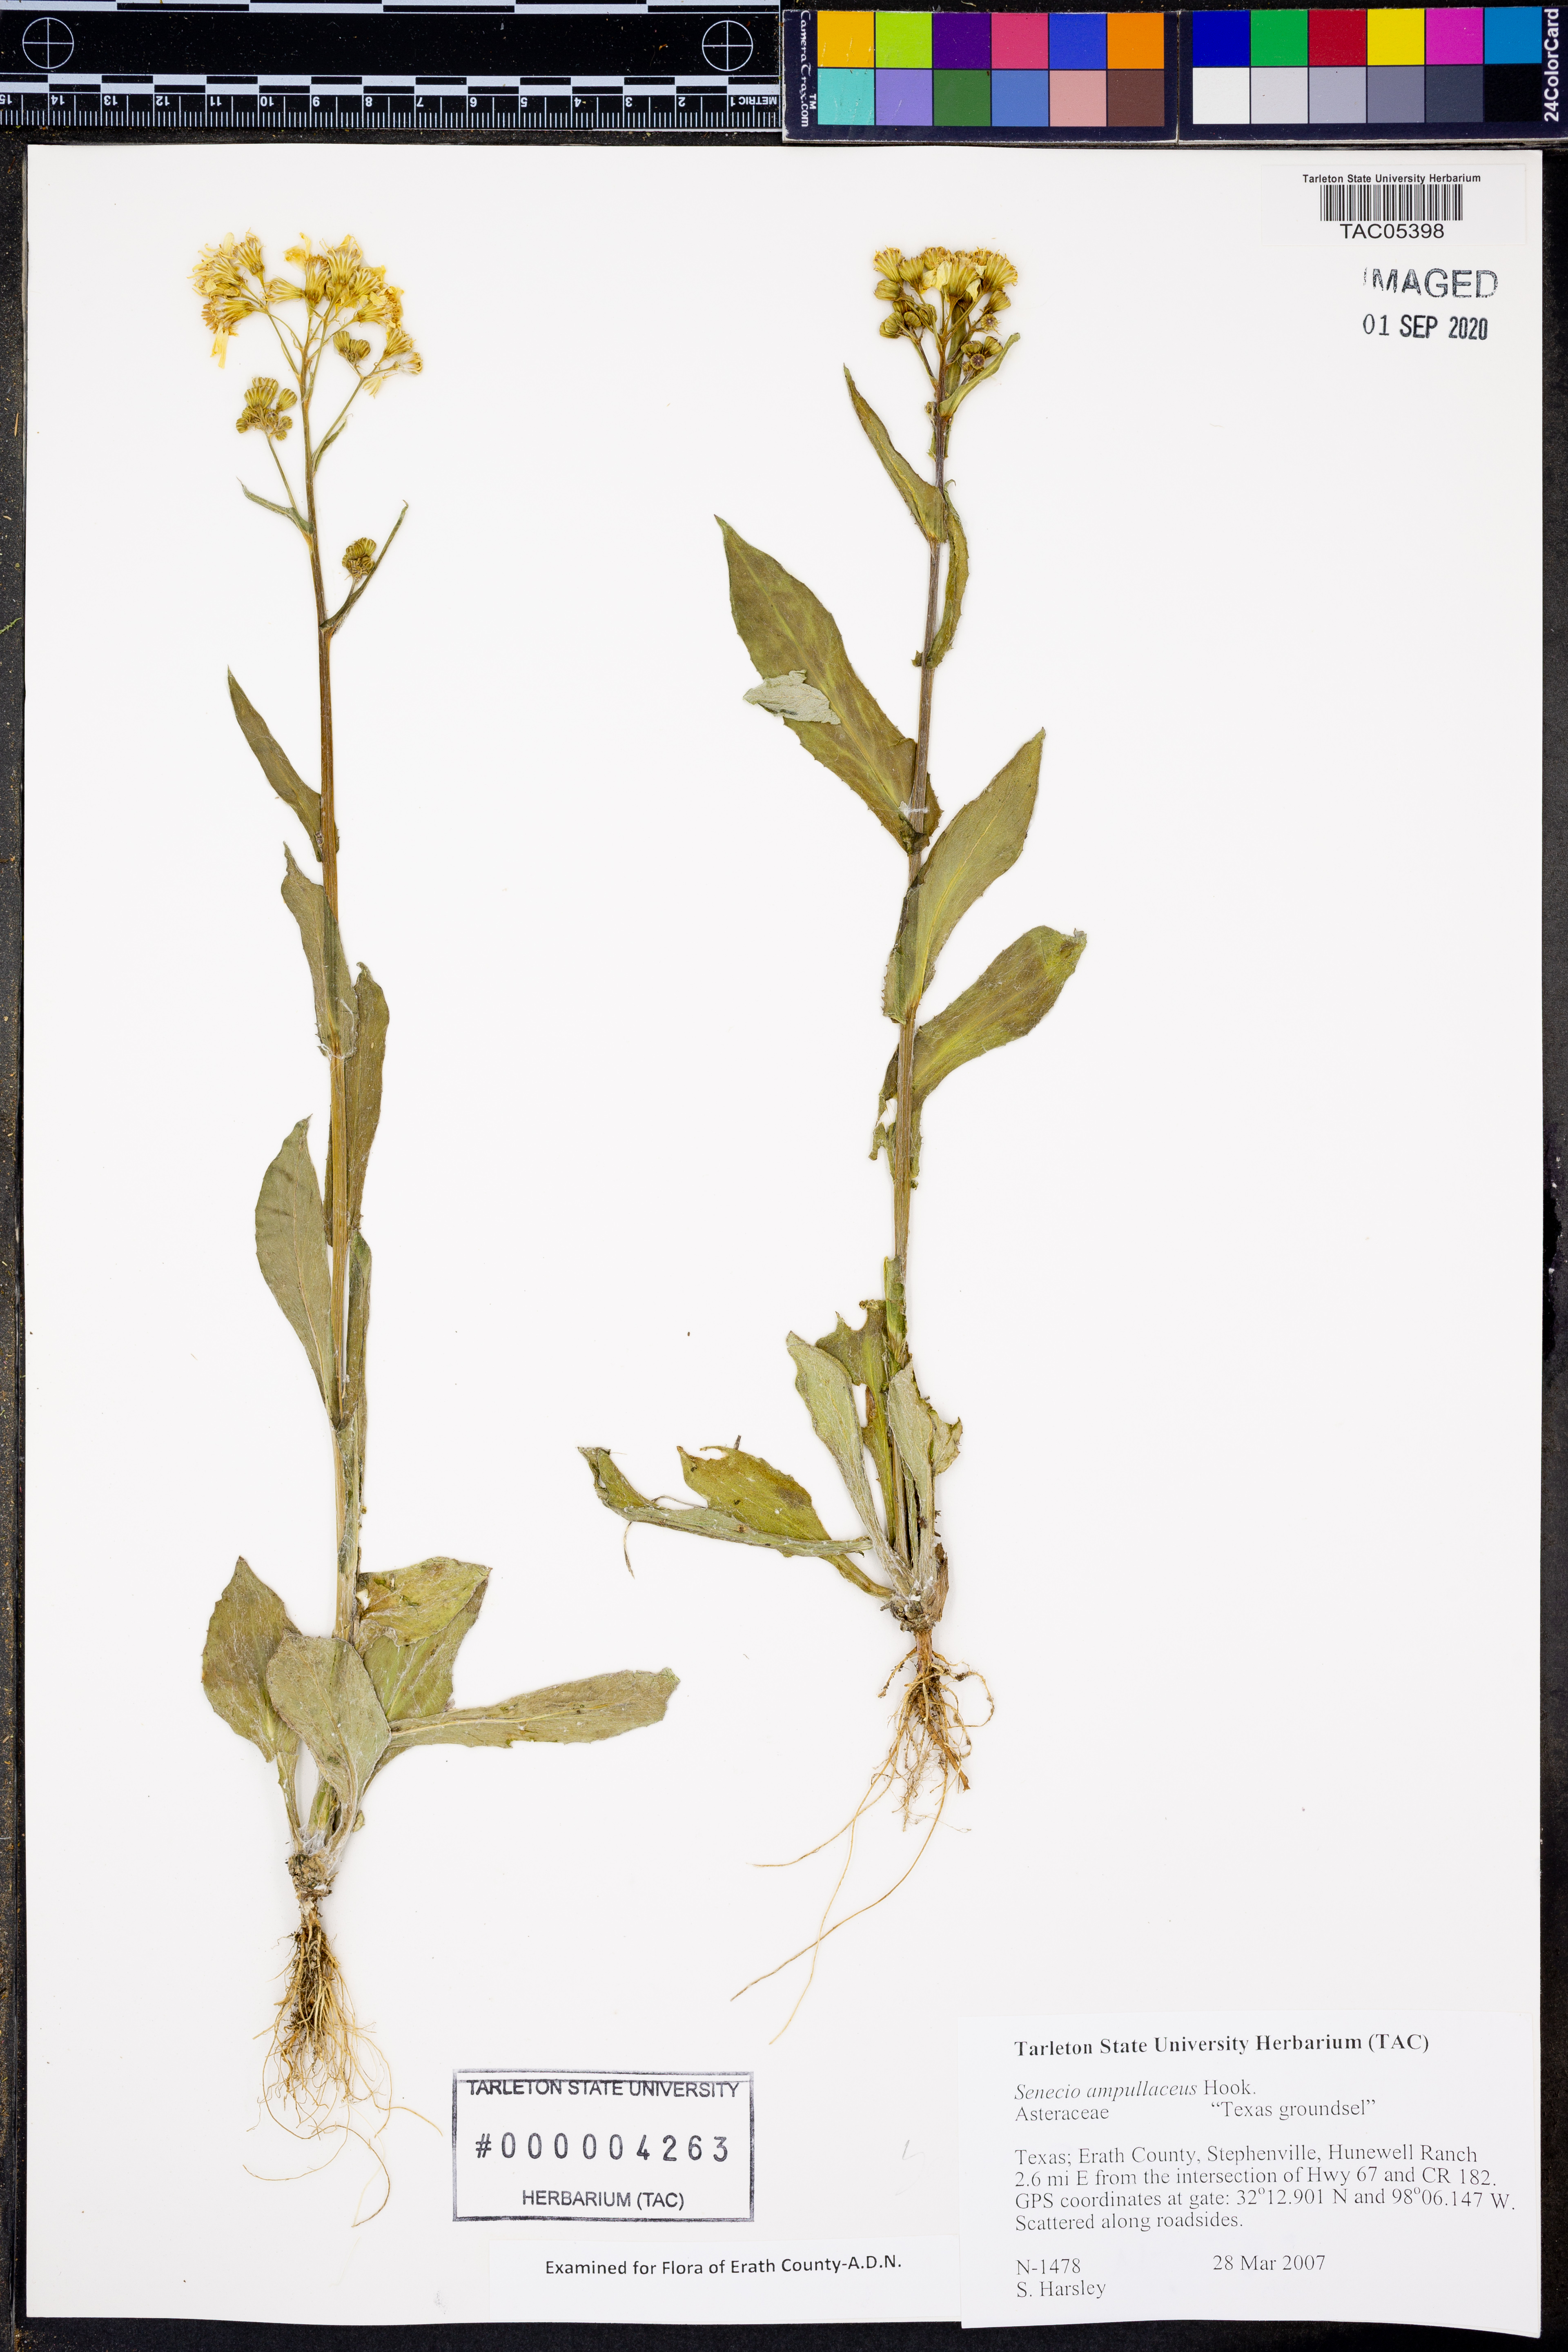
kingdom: Plantae
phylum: Tracheophyta
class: Magnoliopsida
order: Asterales
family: Asteraceae
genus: Senecio
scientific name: Senecio ampullaceus
